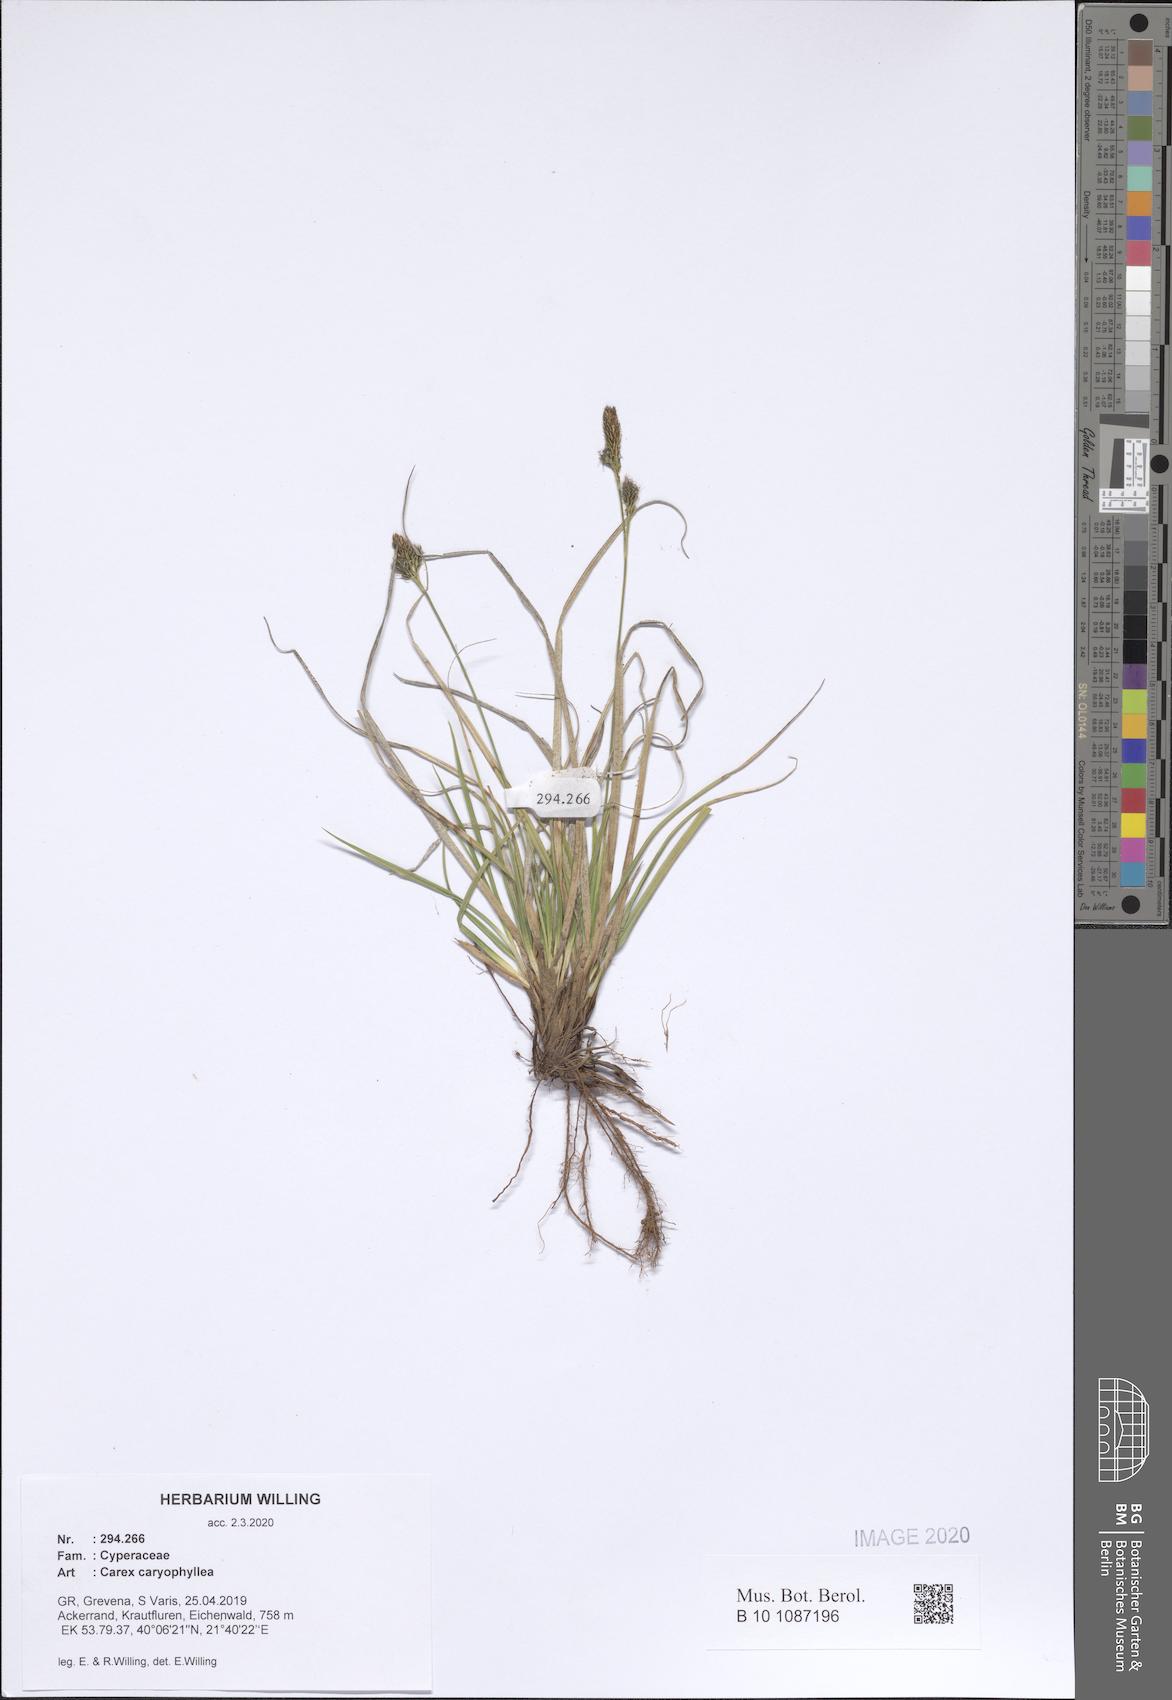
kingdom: Plantae
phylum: Tracheophyta
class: Liliopsida
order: Poales
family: Cyperaceae
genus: Carex
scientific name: Carex caryophyllea
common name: Spring sedge
